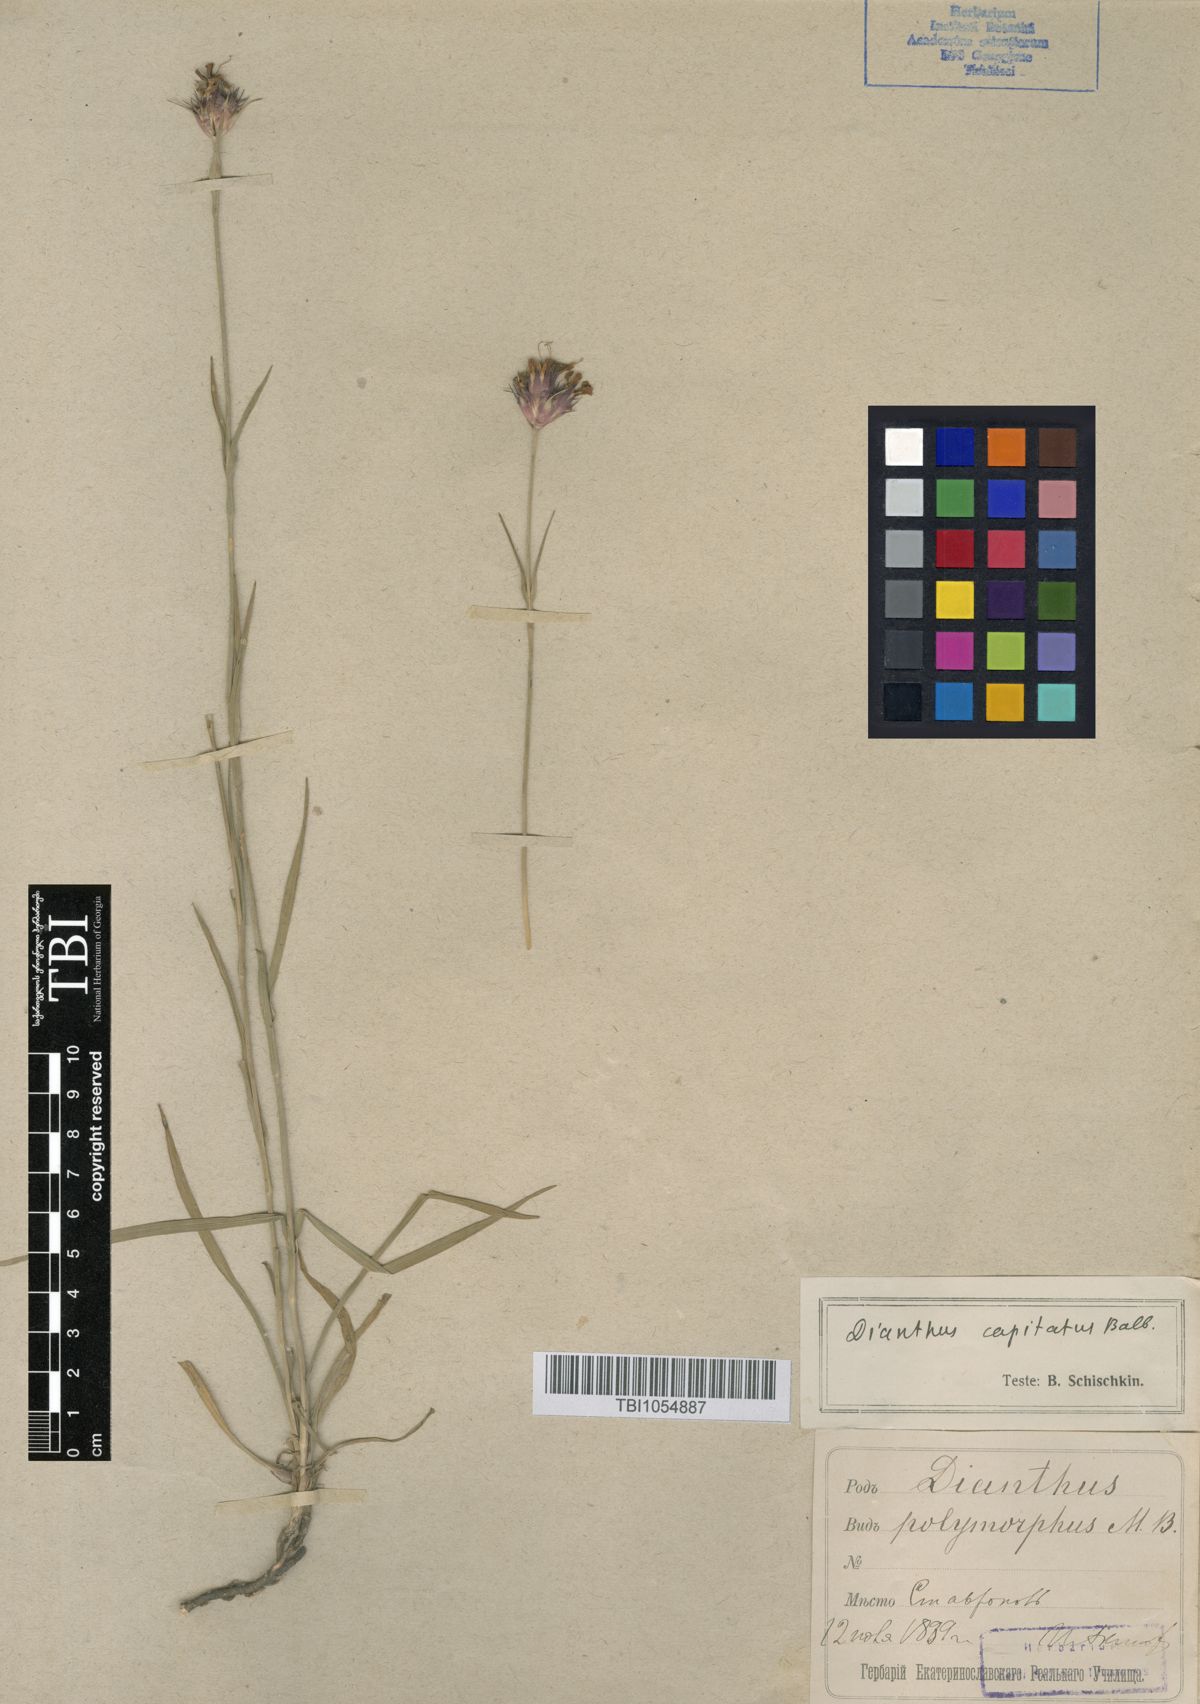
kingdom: Plantae
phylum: Tracheophyta
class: Magnoliopsida
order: Caryophyllales
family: Caryophyllaceae
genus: Dianthus
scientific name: Dianthus capitatus
